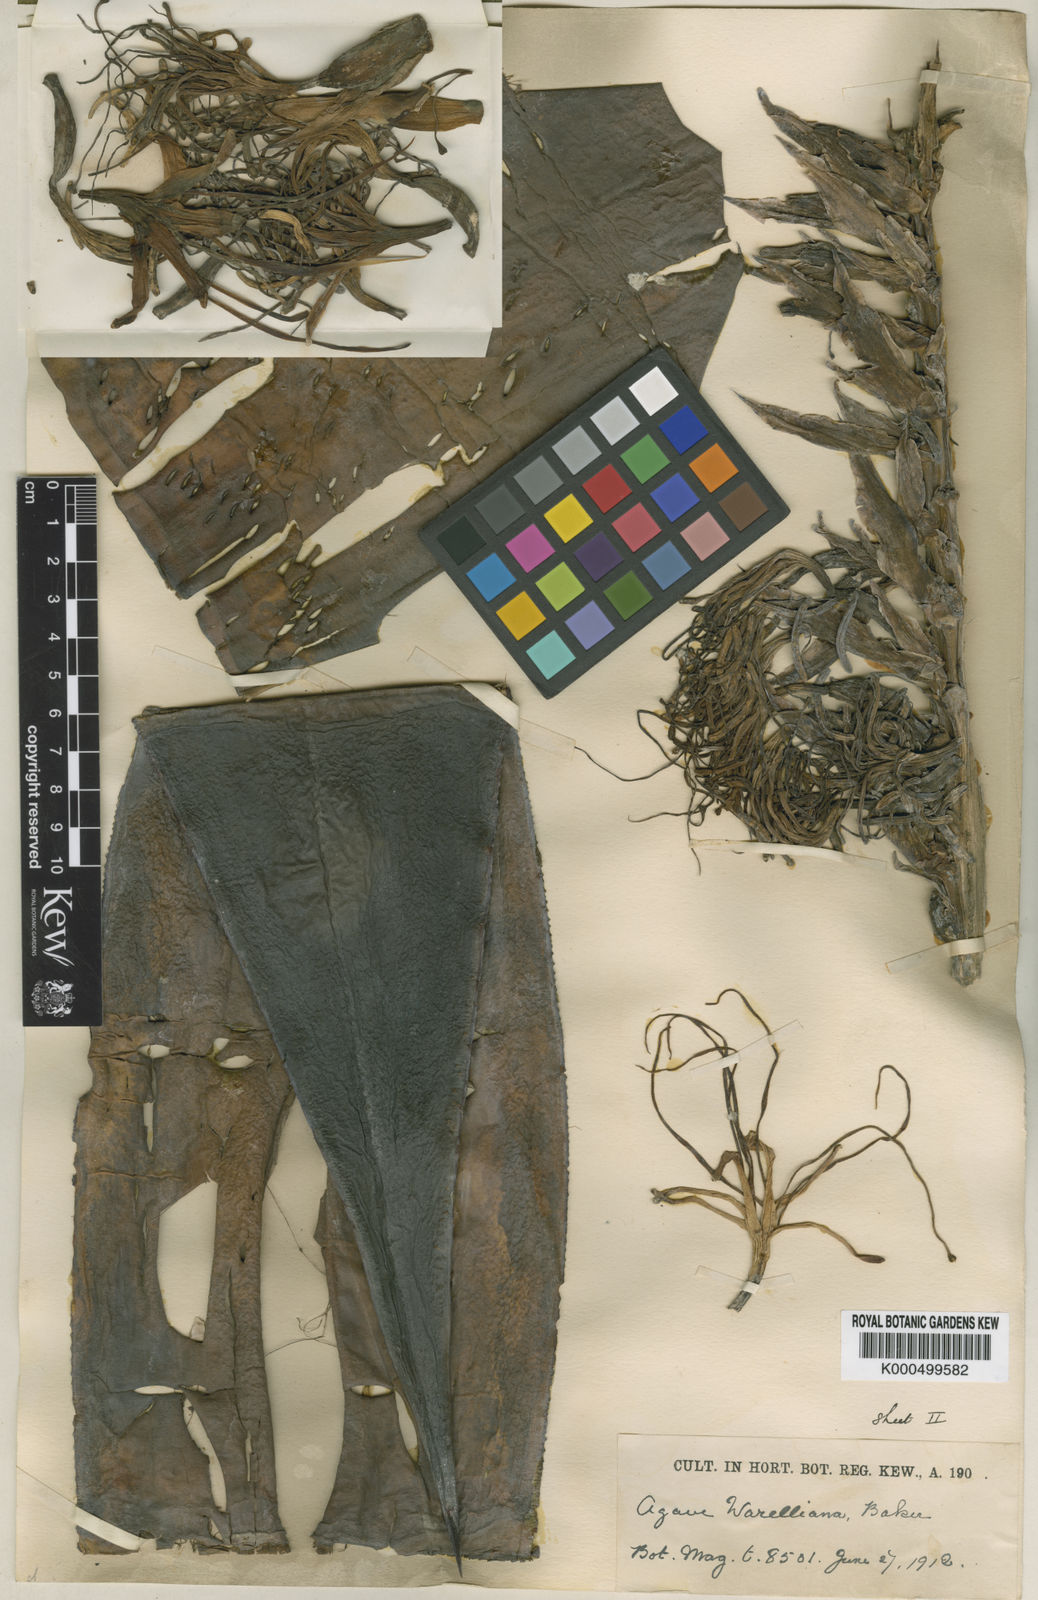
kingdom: Plantae
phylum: Tracheophyta
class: Liliopsida
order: Asparagales
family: Asparagaceae
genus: Agave
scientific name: Agave
